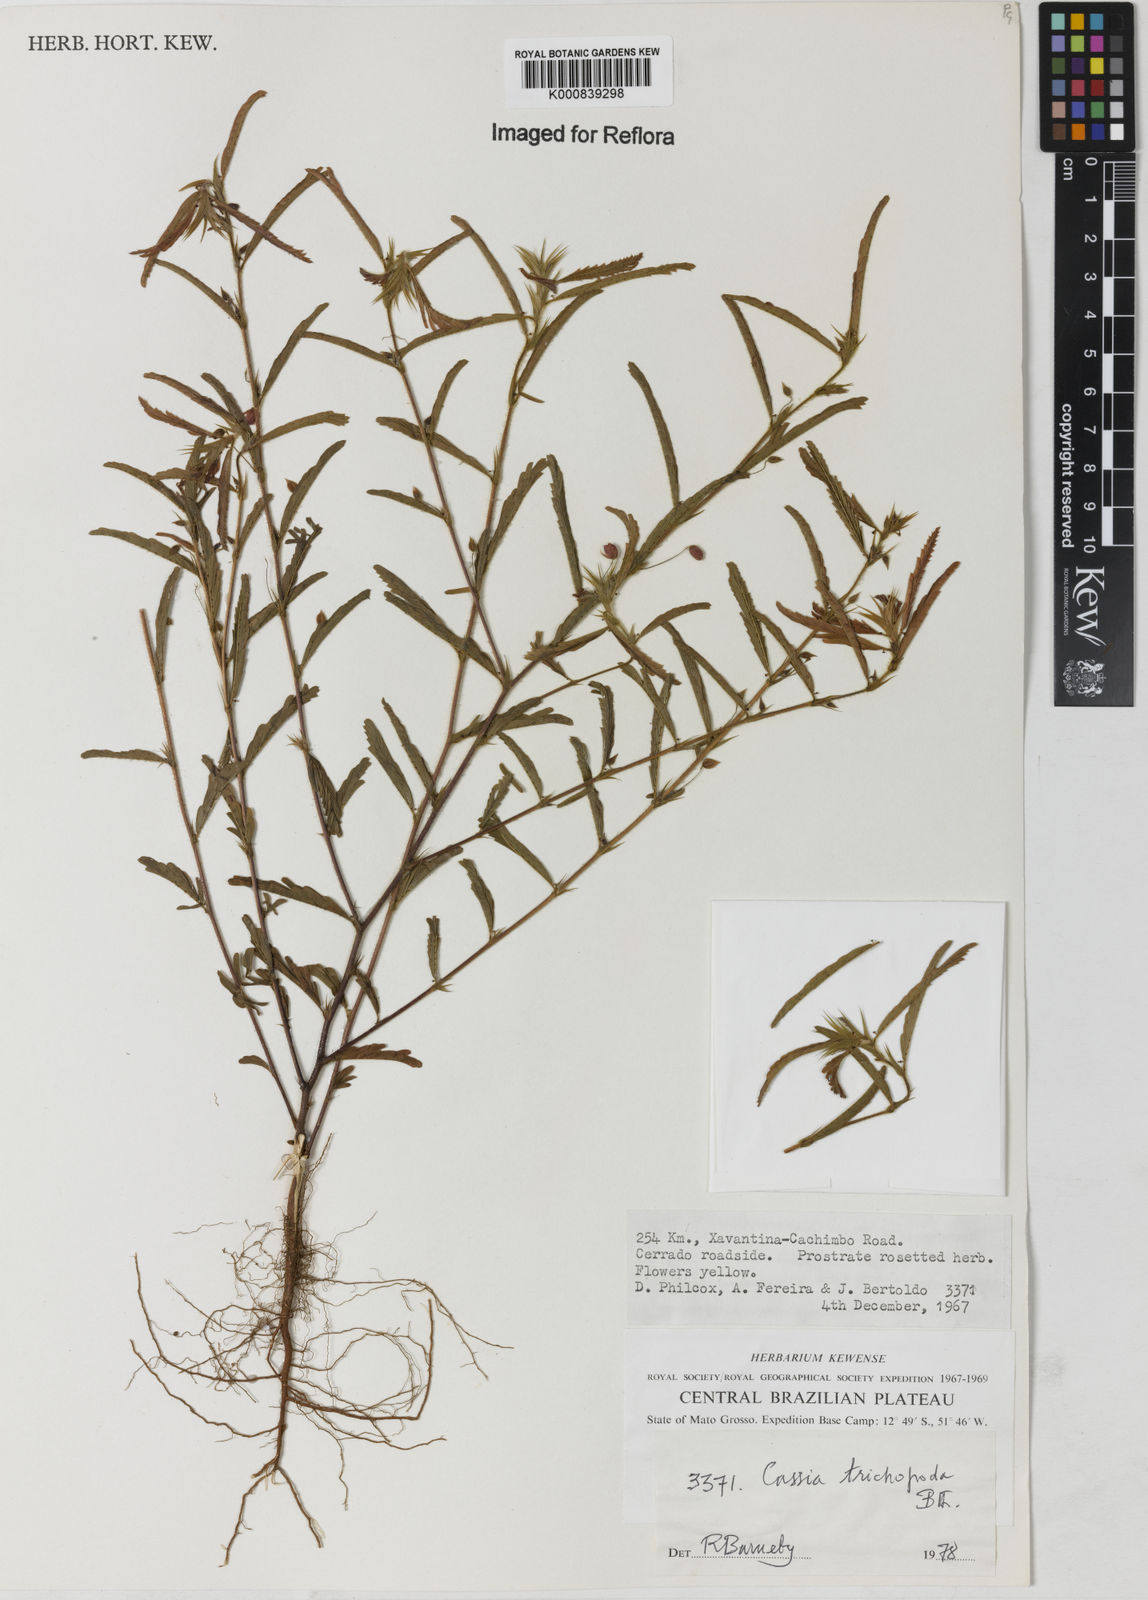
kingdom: Plantae
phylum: Tracheophyta
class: Magnoliopsida
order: Fabales
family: Fabaceae
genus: Chamaecrista
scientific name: Chamaecrista trichopoda
